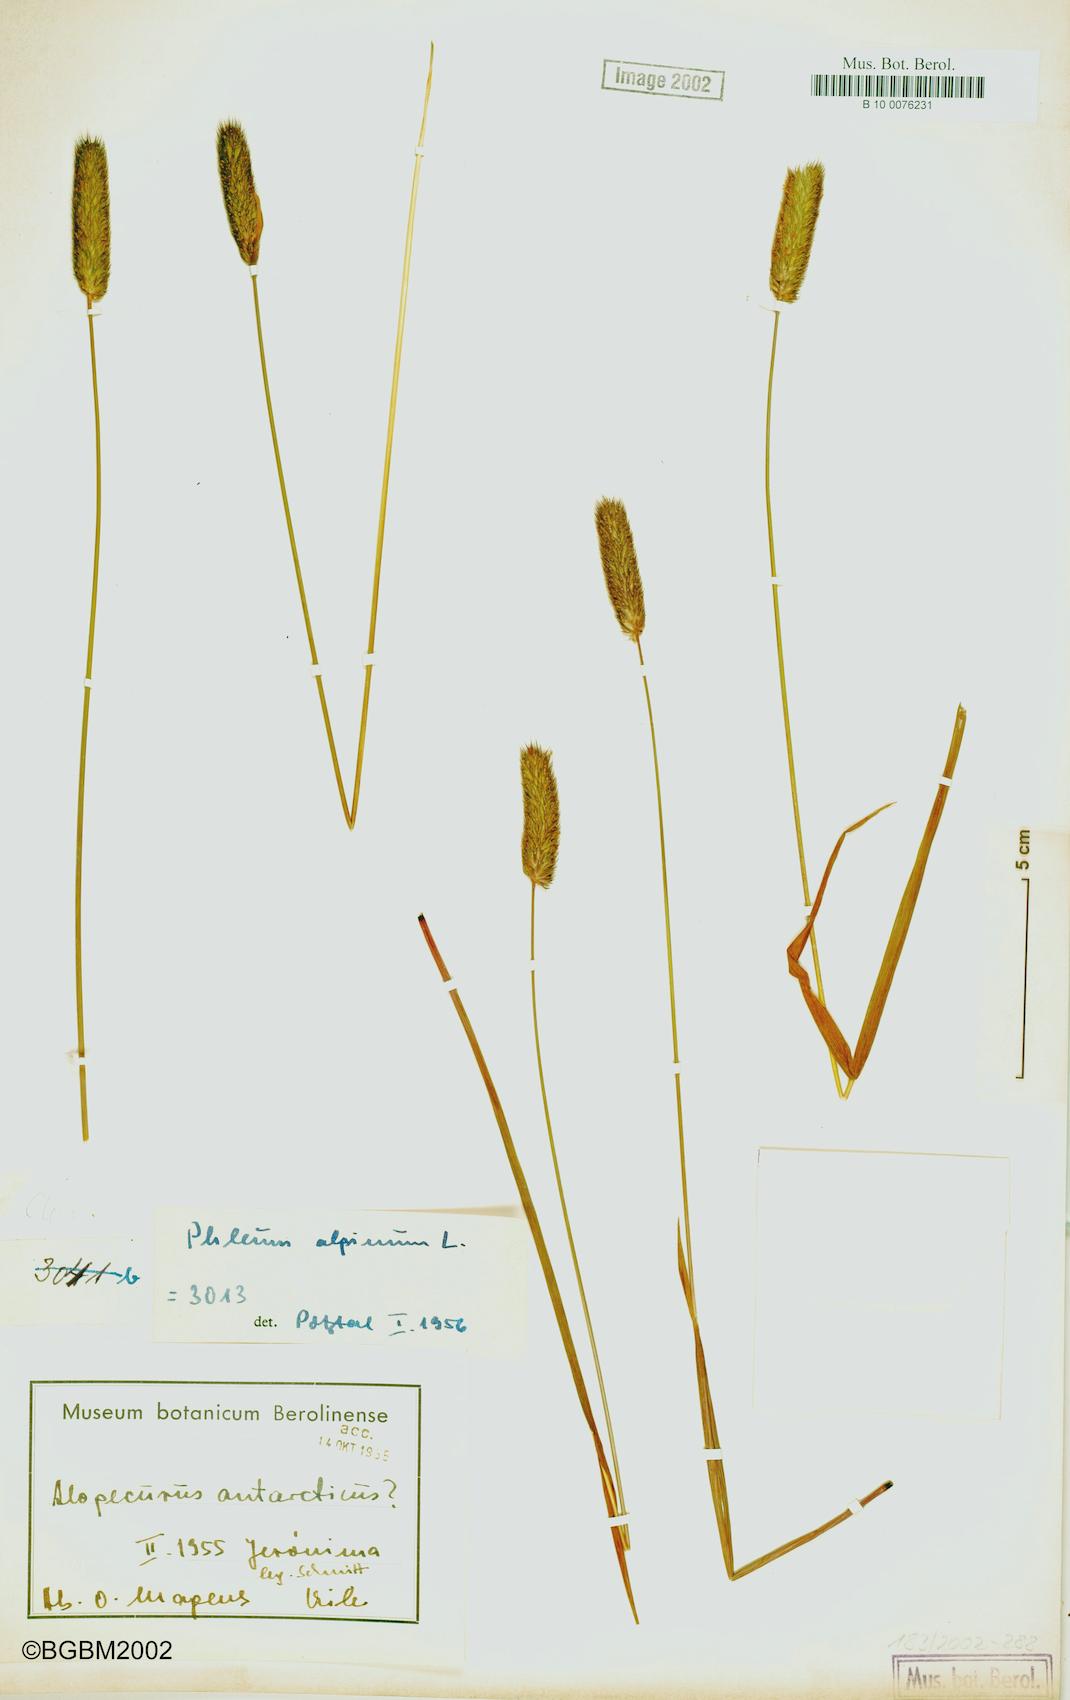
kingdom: Plantae
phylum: Tracheophyta
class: Liliopsida
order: Poales
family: Poaceae
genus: Phleum
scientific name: Phleum alpinum
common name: Alpine cat's-tail
